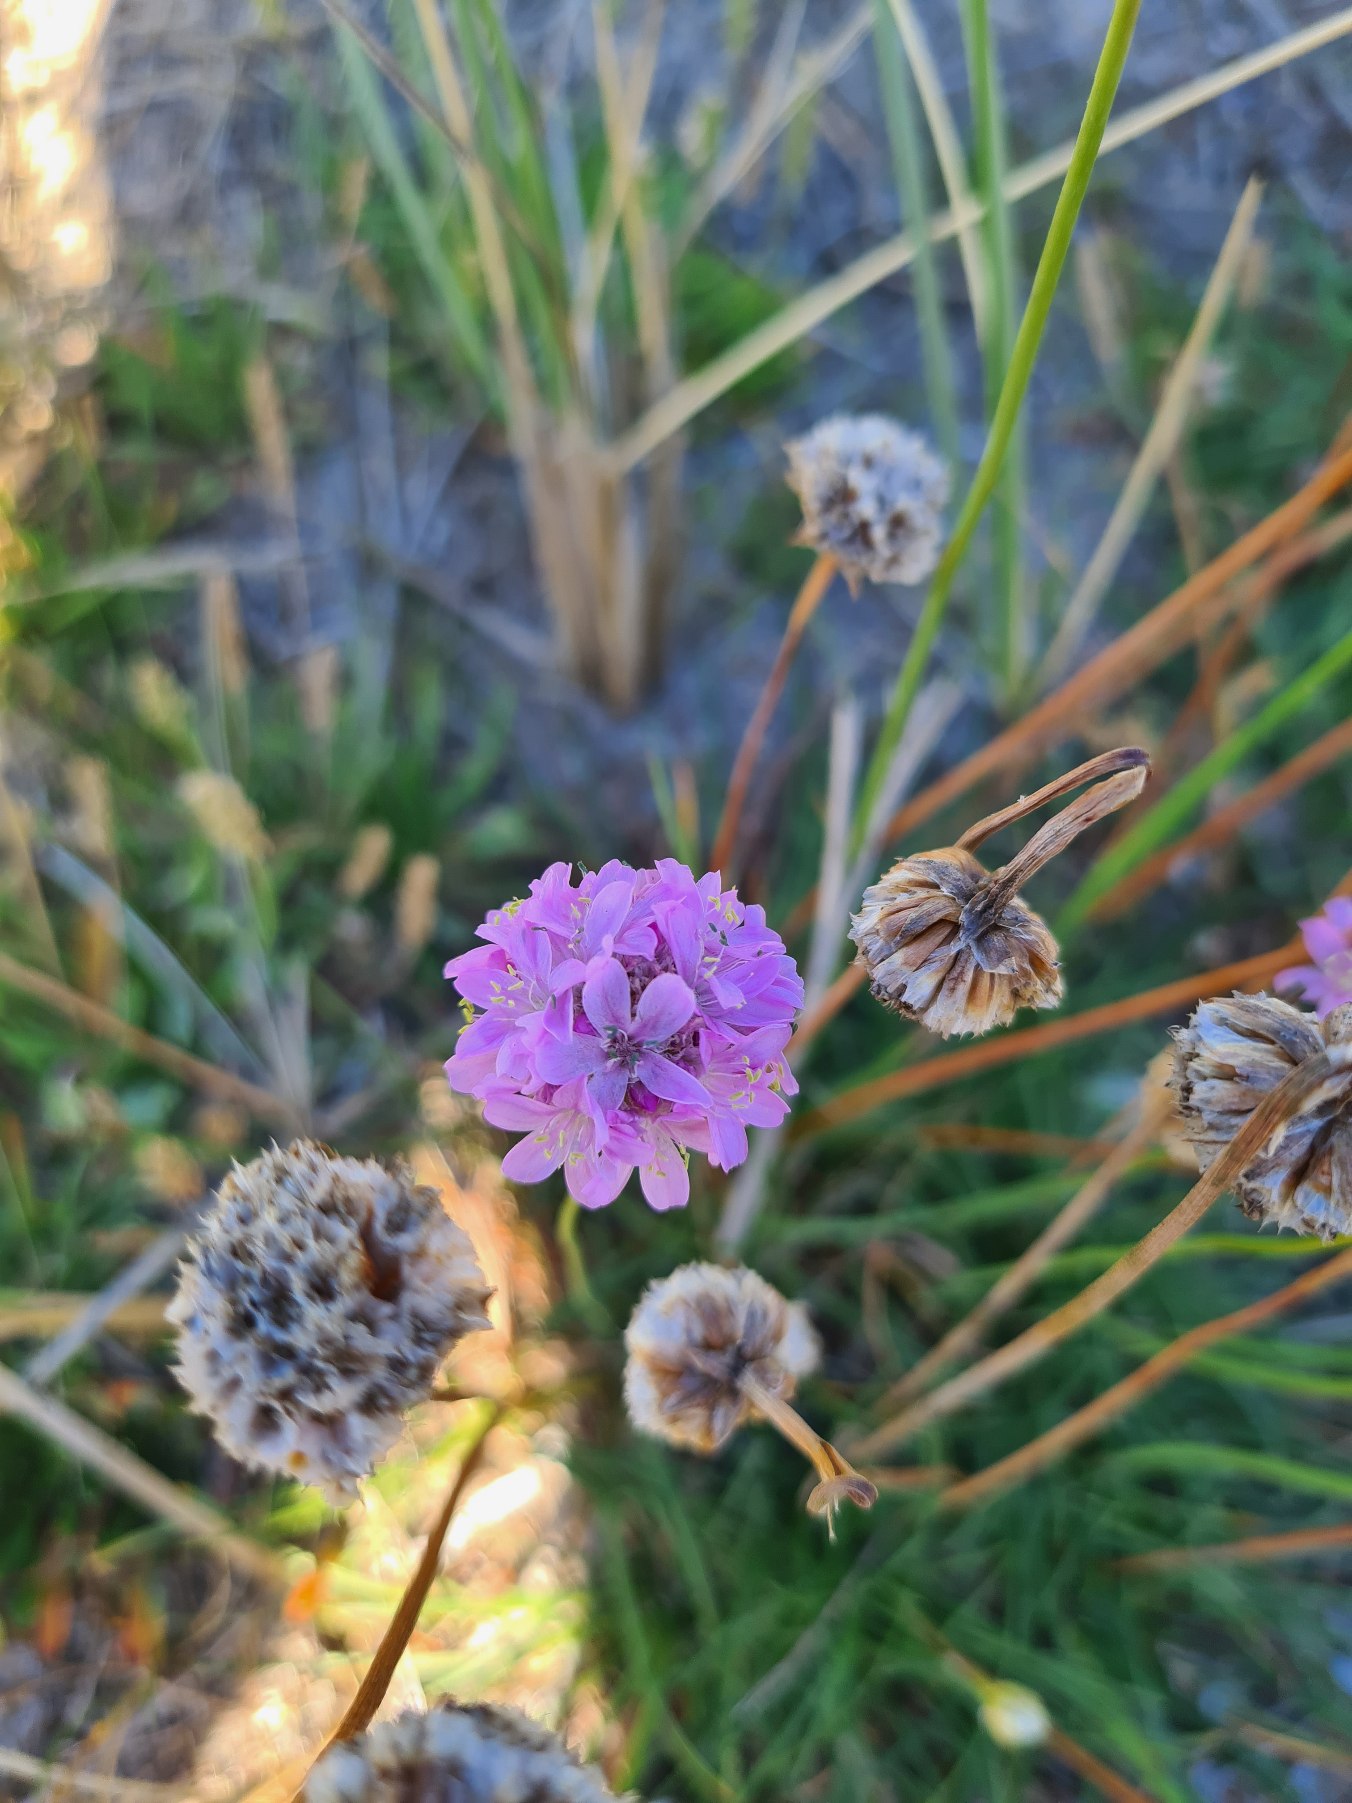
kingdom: Plantae
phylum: Tracheophyta
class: Magnoliopsida
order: Caryophyllales
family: Plumbaginaceae
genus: Armeria
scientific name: Armeria maritima
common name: Engelskgræs
